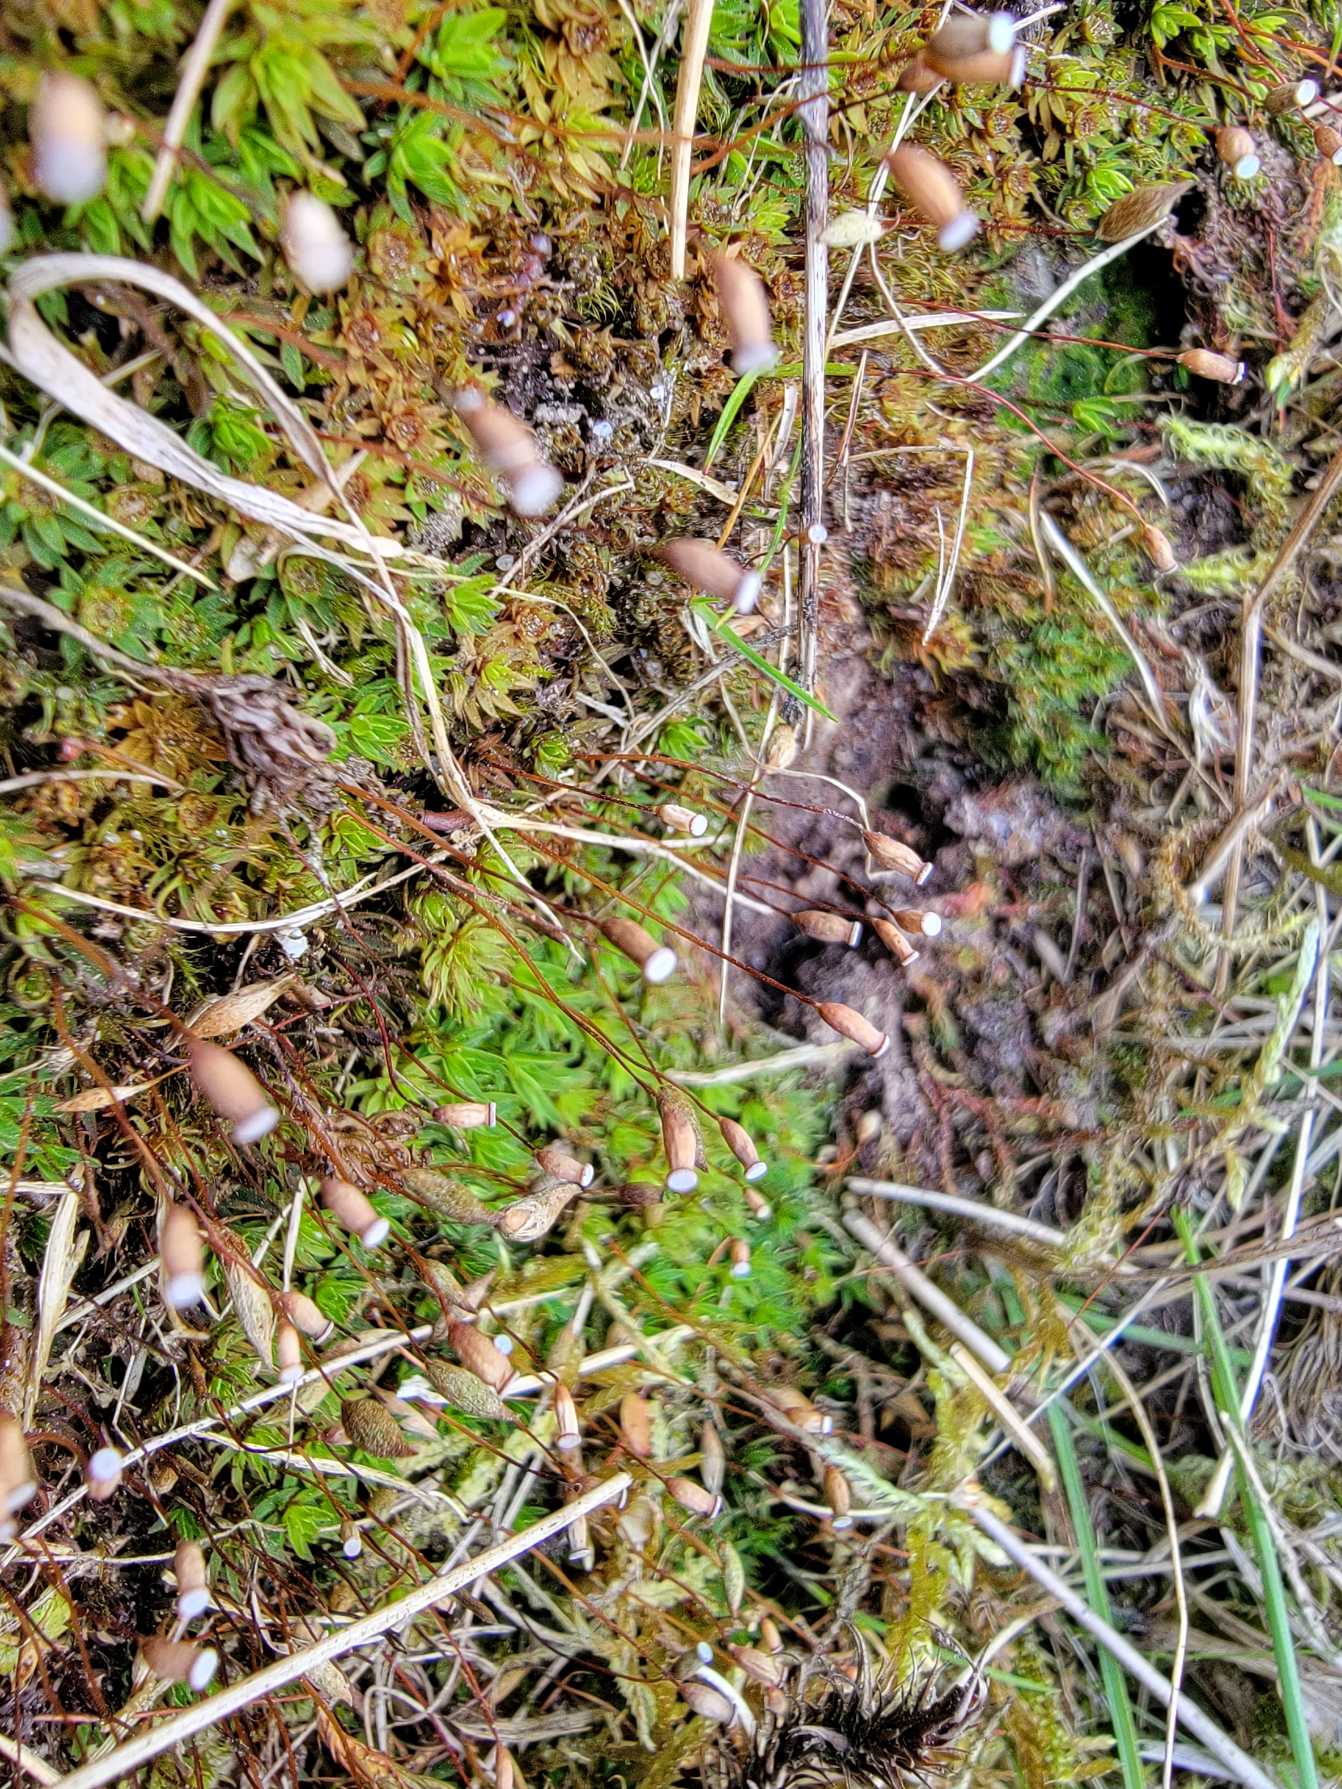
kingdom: Plantae
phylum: Bryophyta
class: Polytrichopsida
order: Polytrichales
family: Polytrichaceae
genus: Pogonatum
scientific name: Pogonatum aloides
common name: Smal urnekapsel
